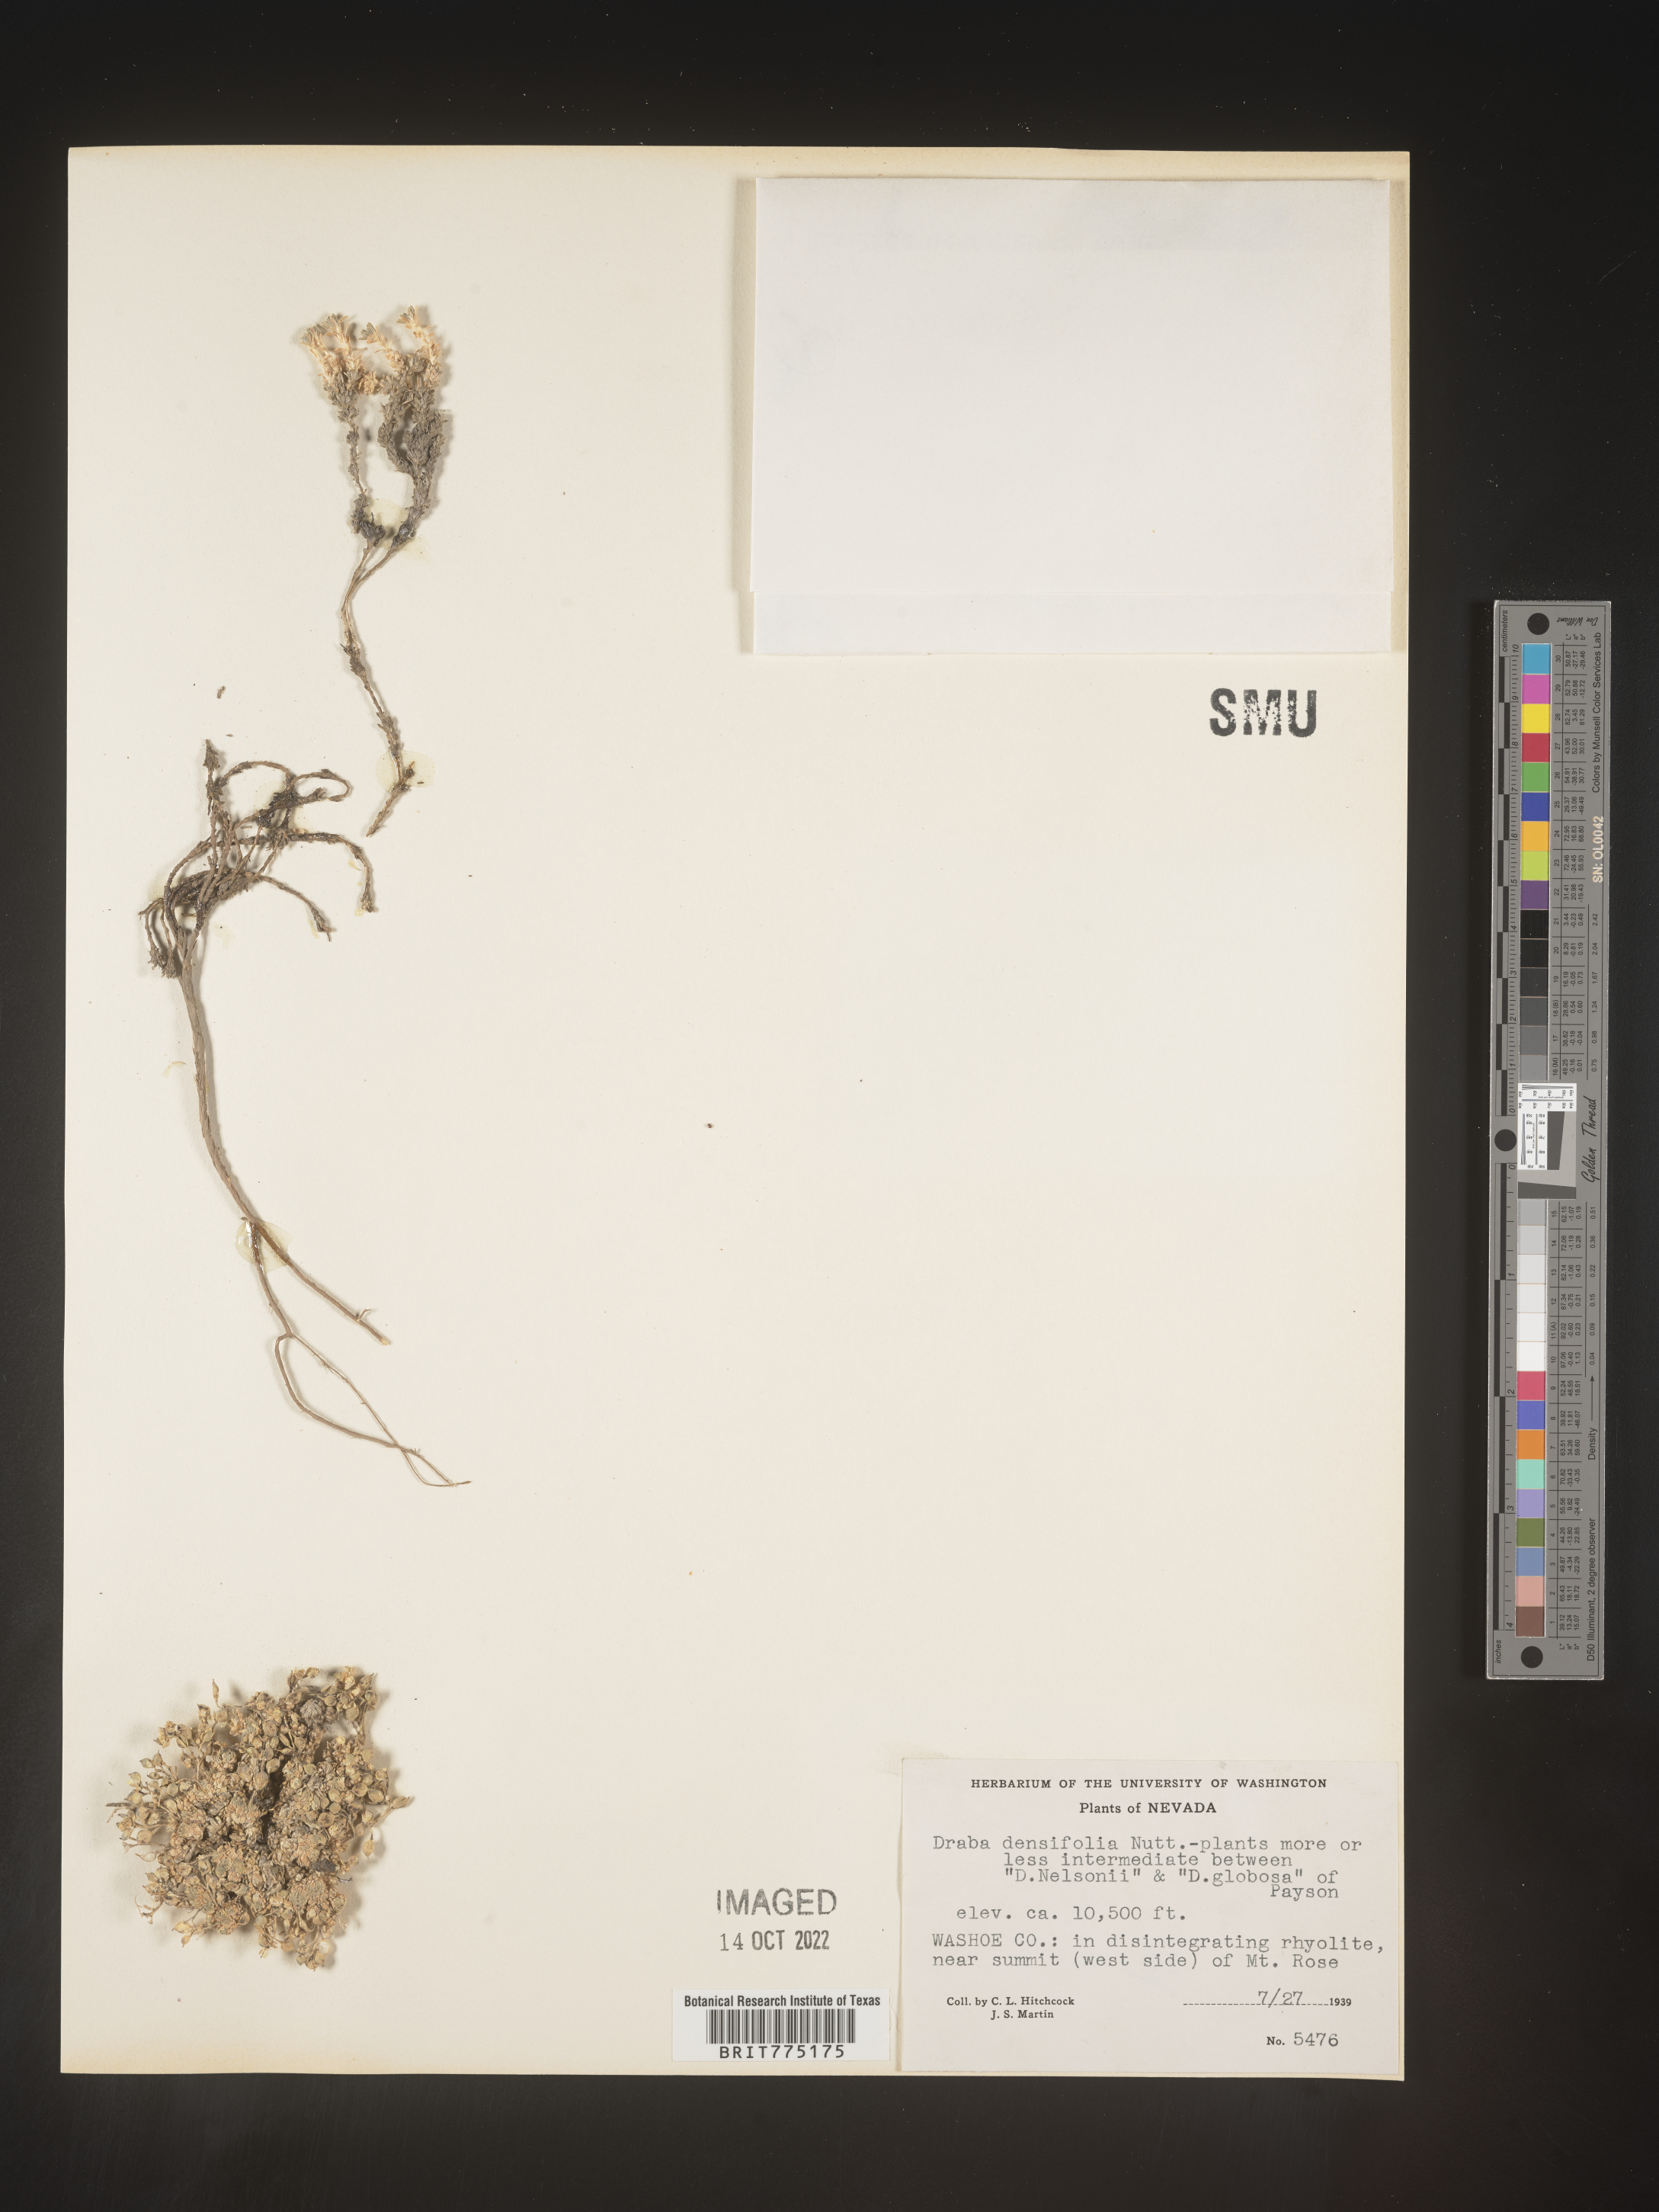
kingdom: Plantae
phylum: Tracheophyta
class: Magnoliopsida
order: Brassicales
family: Brassicaceae
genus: Draba
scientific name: Draba
